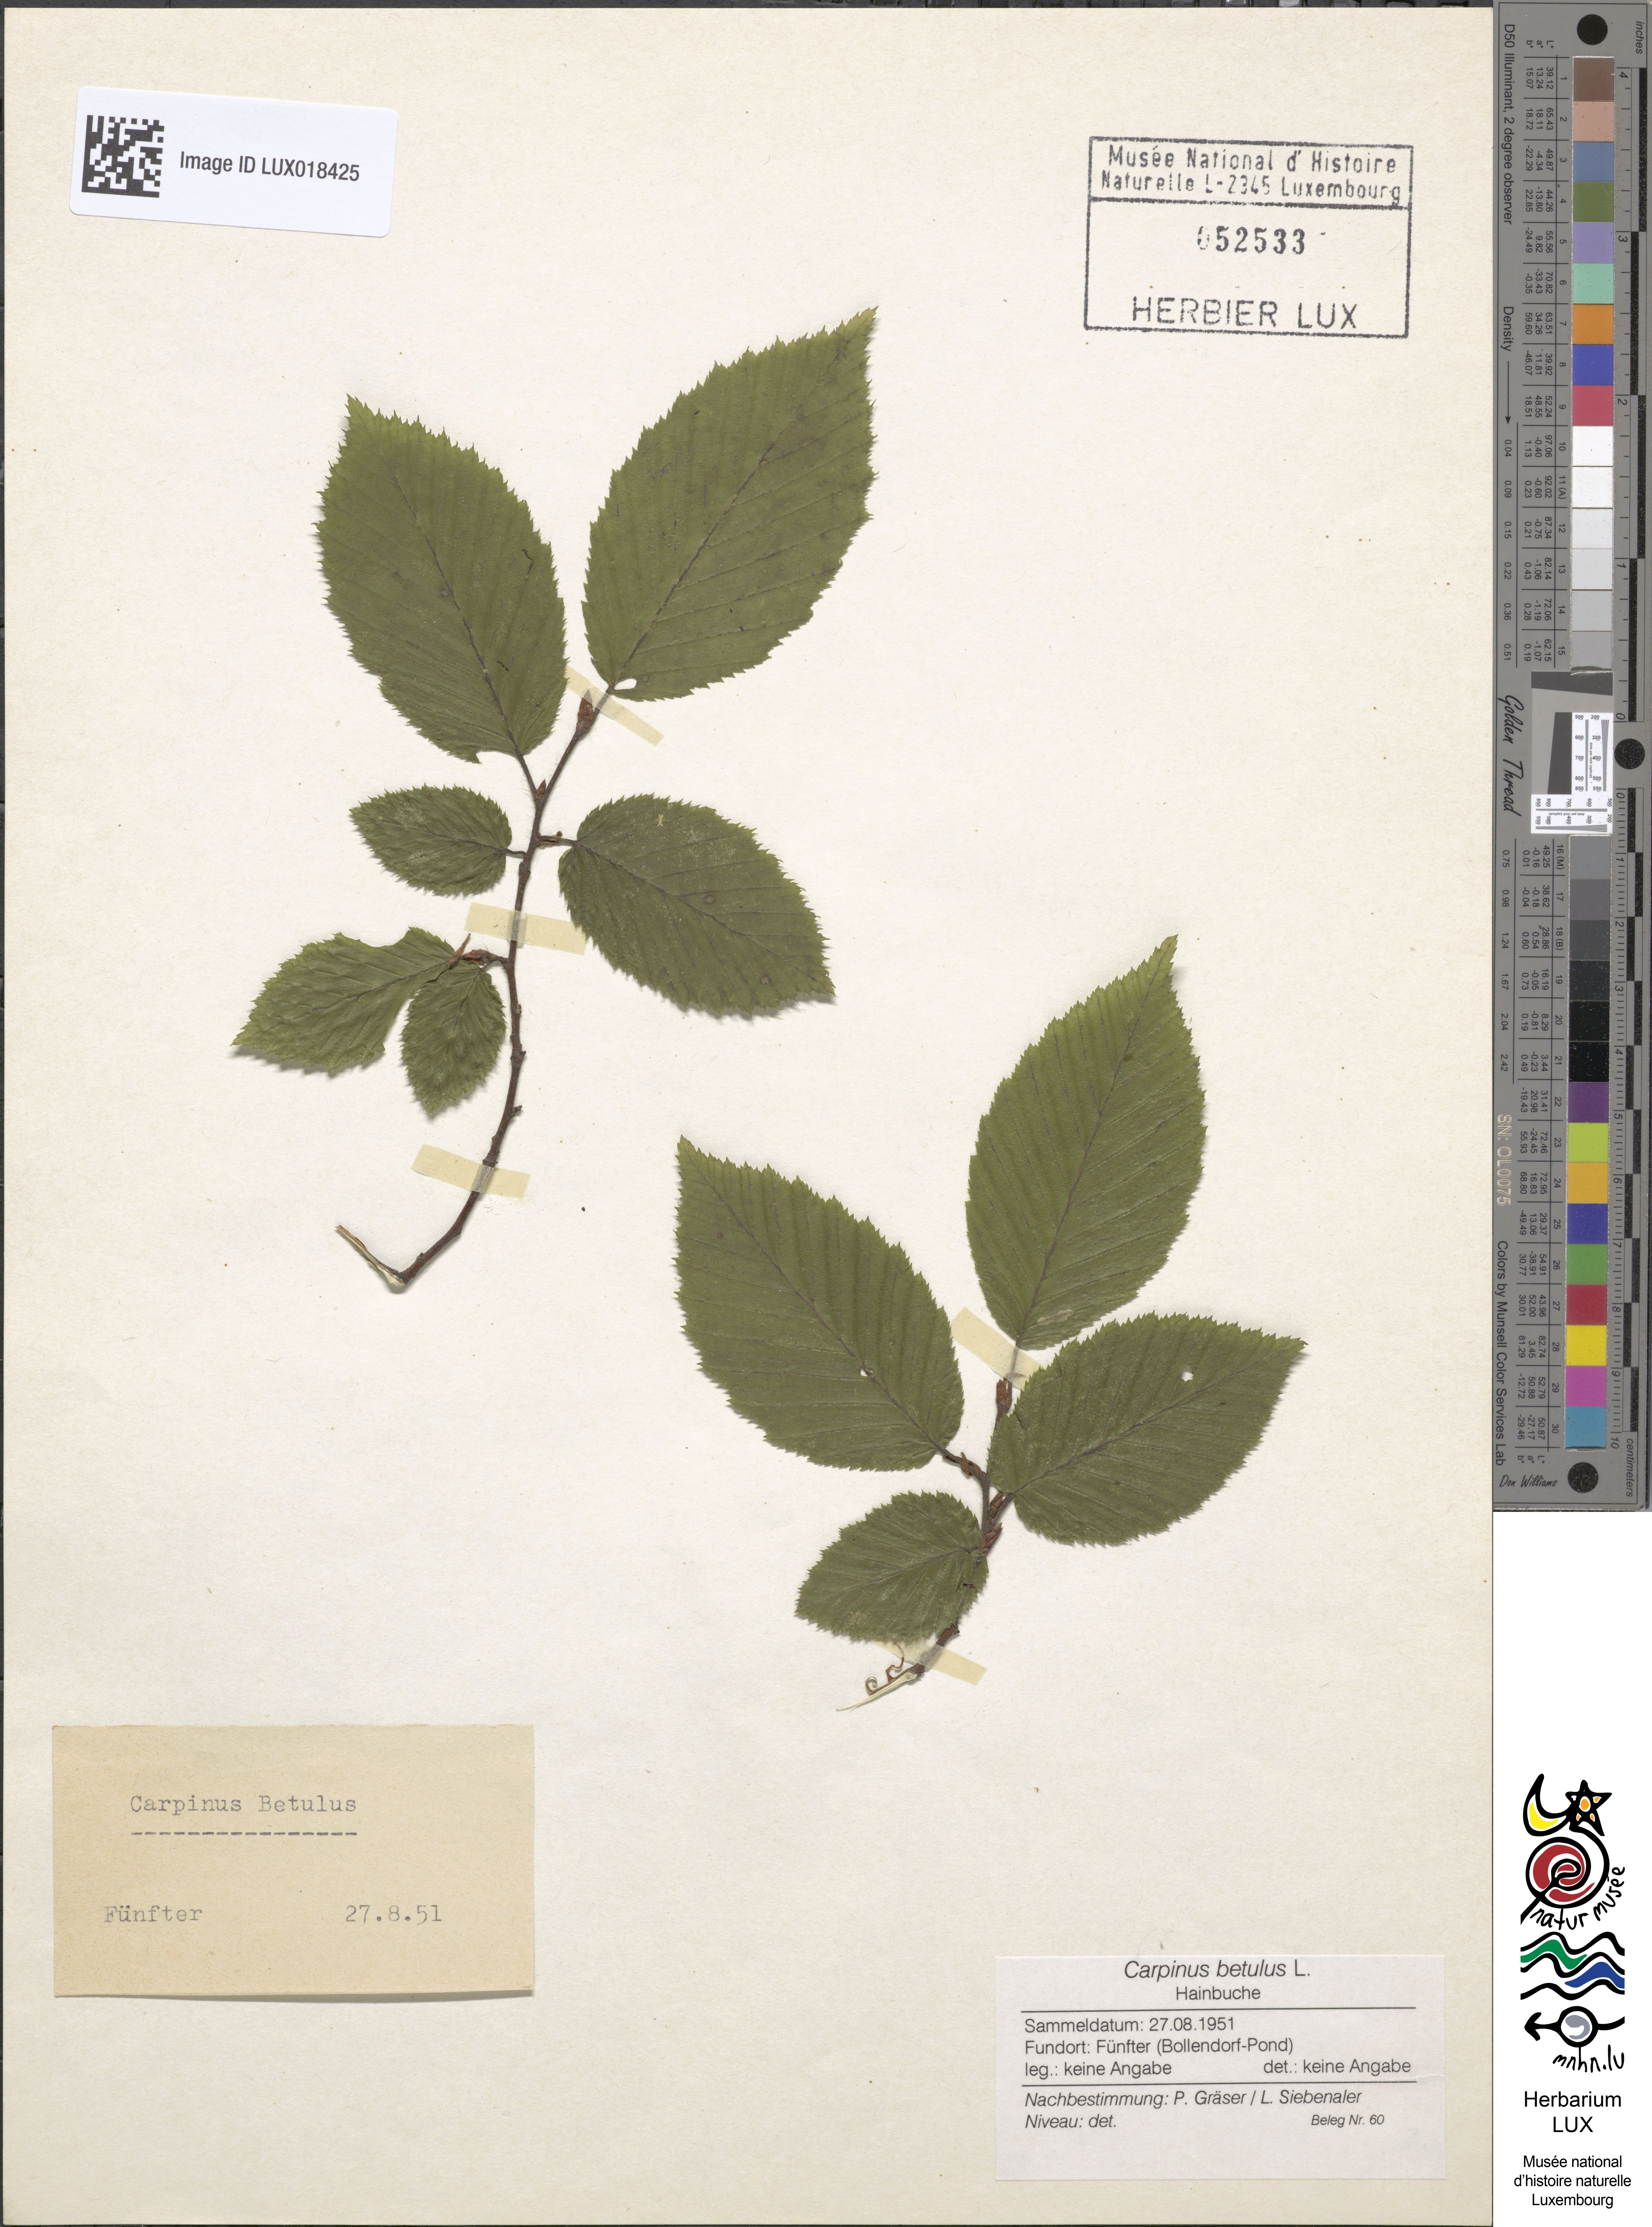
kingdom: Plantae
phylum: Tracheophyta
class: Magnoliopsida
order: Fagales
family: Betulaceae
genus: Carpinus
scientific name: Carpinus betulus
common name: Hornbeam
